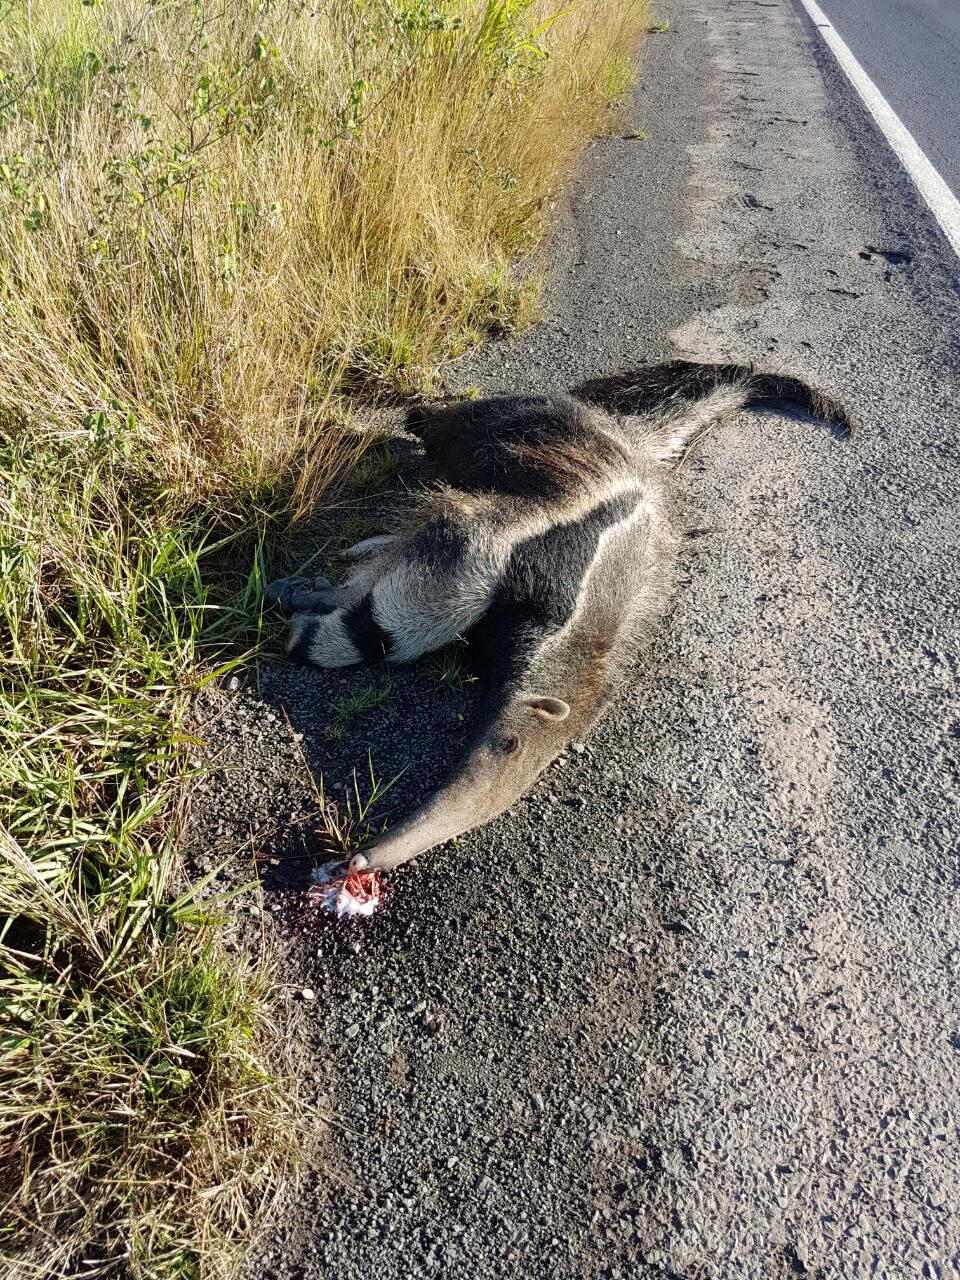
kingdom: Animalia
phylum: Chordata
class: Mammalia
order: Pilosa
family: Myrmecophagidae
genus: Myrmecophaga
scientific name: Myrmecophaga tridactyla
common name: Giant anteater
